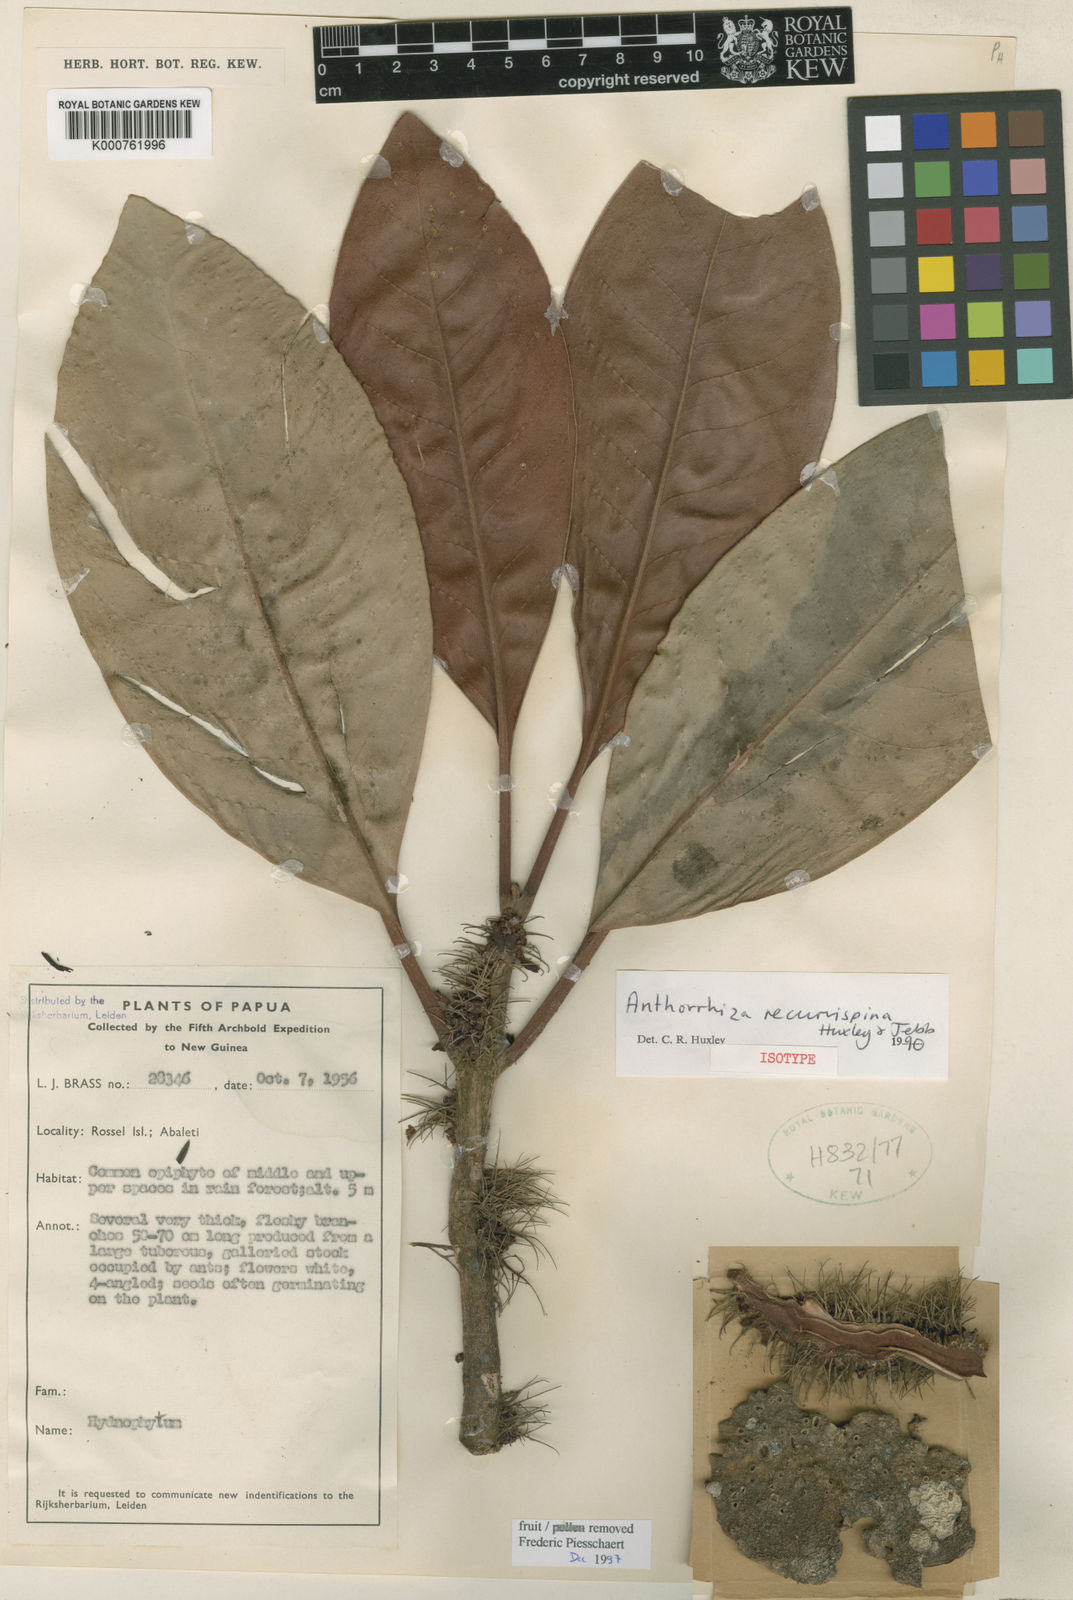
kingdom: Plantae
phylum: Tracheophyta
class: Magnoliopsida
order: Gentianales
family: Rubiaceae
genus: Anthorrhiza
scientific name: Anthorrhiza recurvispina
